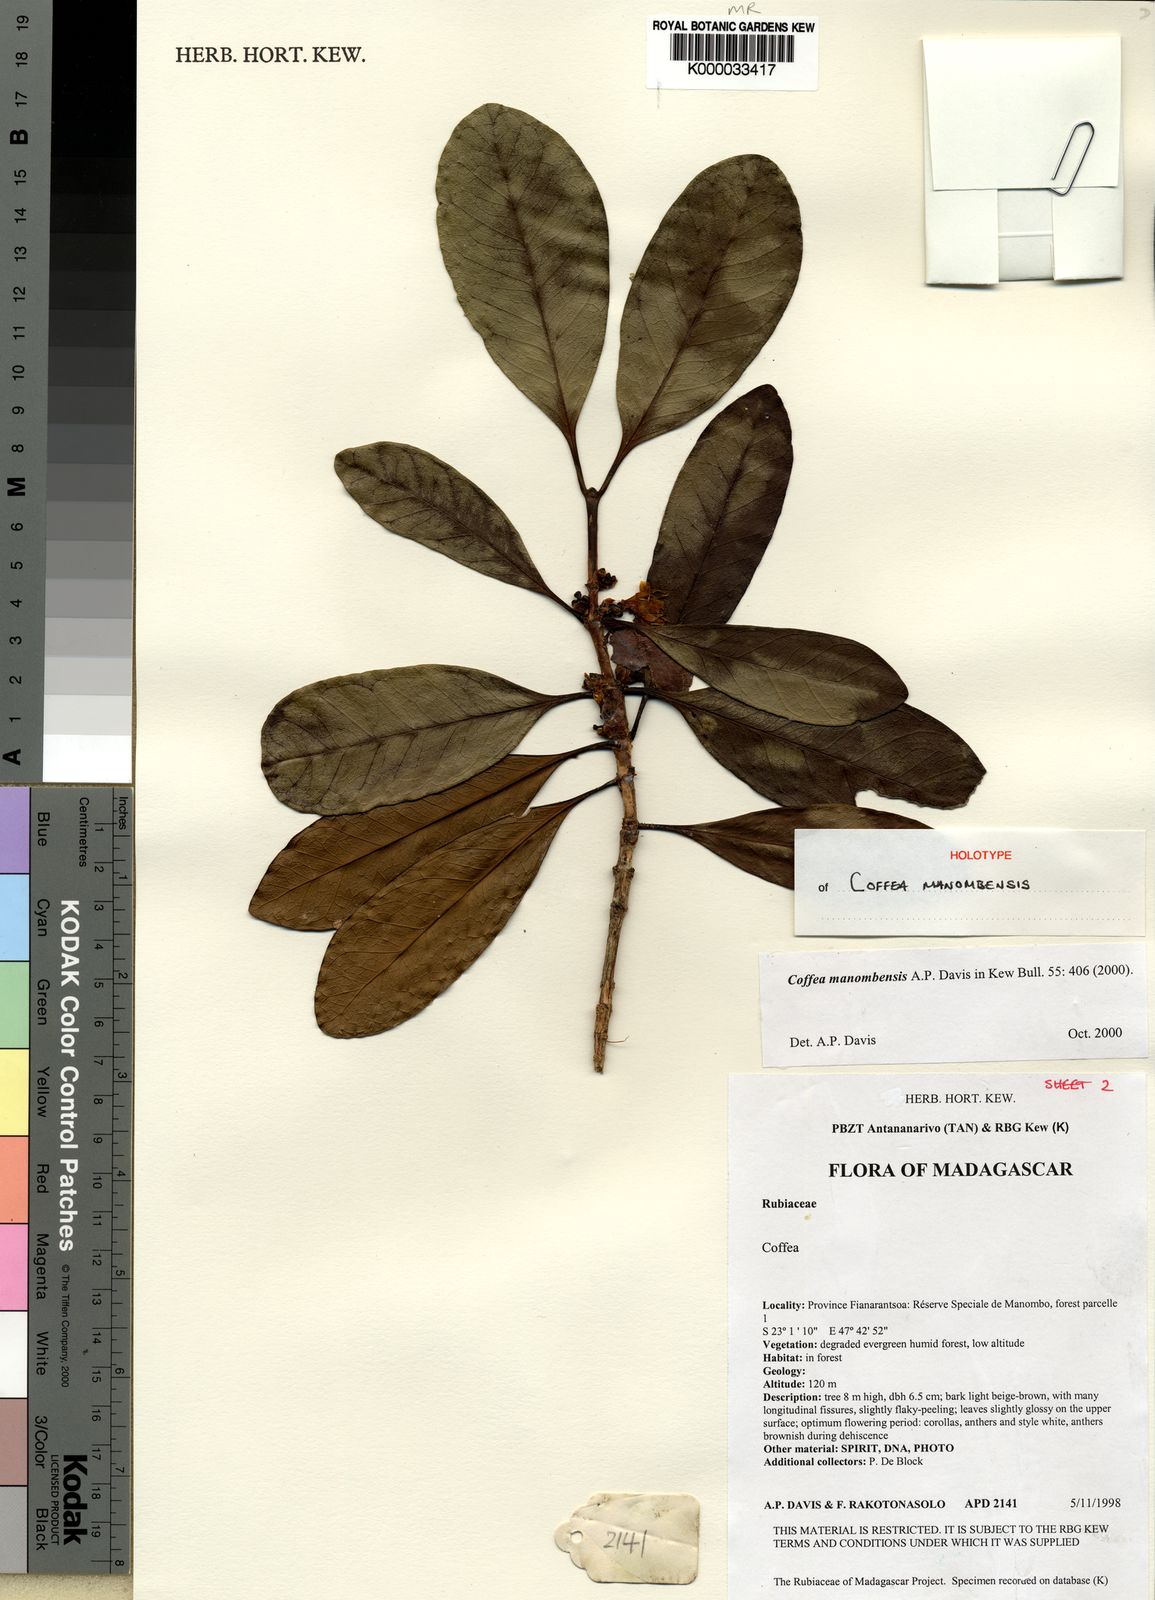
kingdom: Plantae
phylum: Tracheophyta
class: Magnoliopsida
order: Gentianales
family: Rubiaceae
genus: Coffea
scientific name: Coffea manombensis
